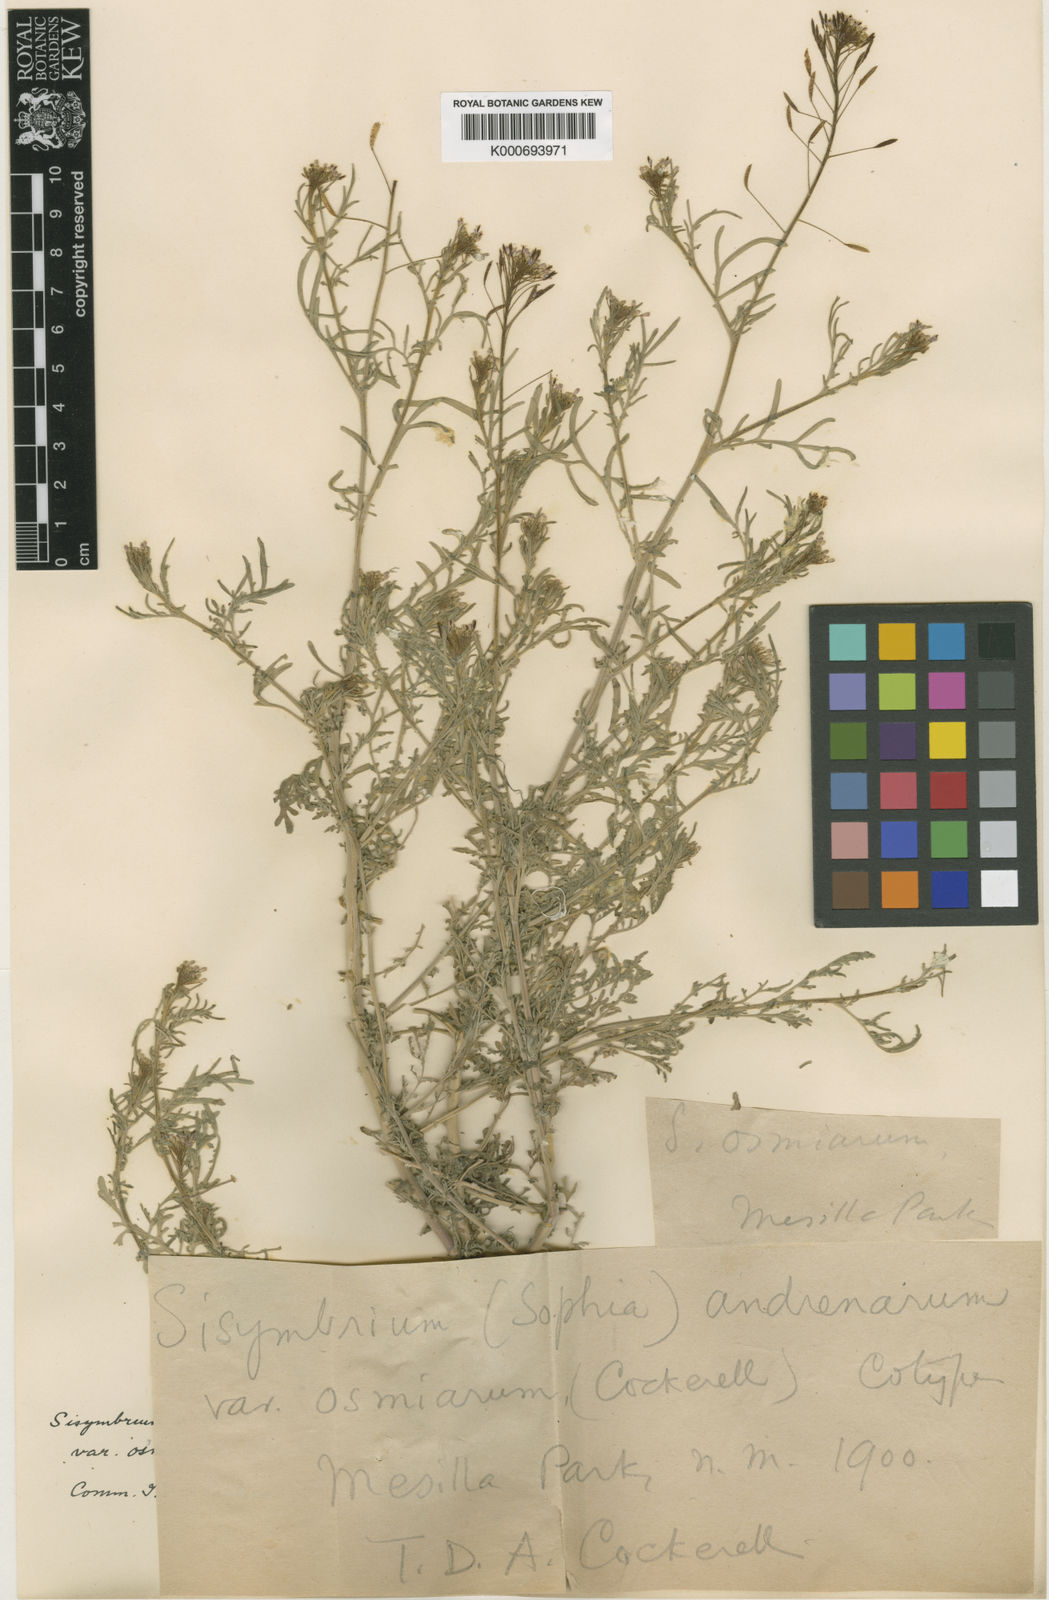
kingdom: Plantae
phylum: Tracheophyta
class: Magnoliopsida
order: Brassicales
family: Brassicaceae
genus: Sisymbrium
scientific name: Sisymbrium
